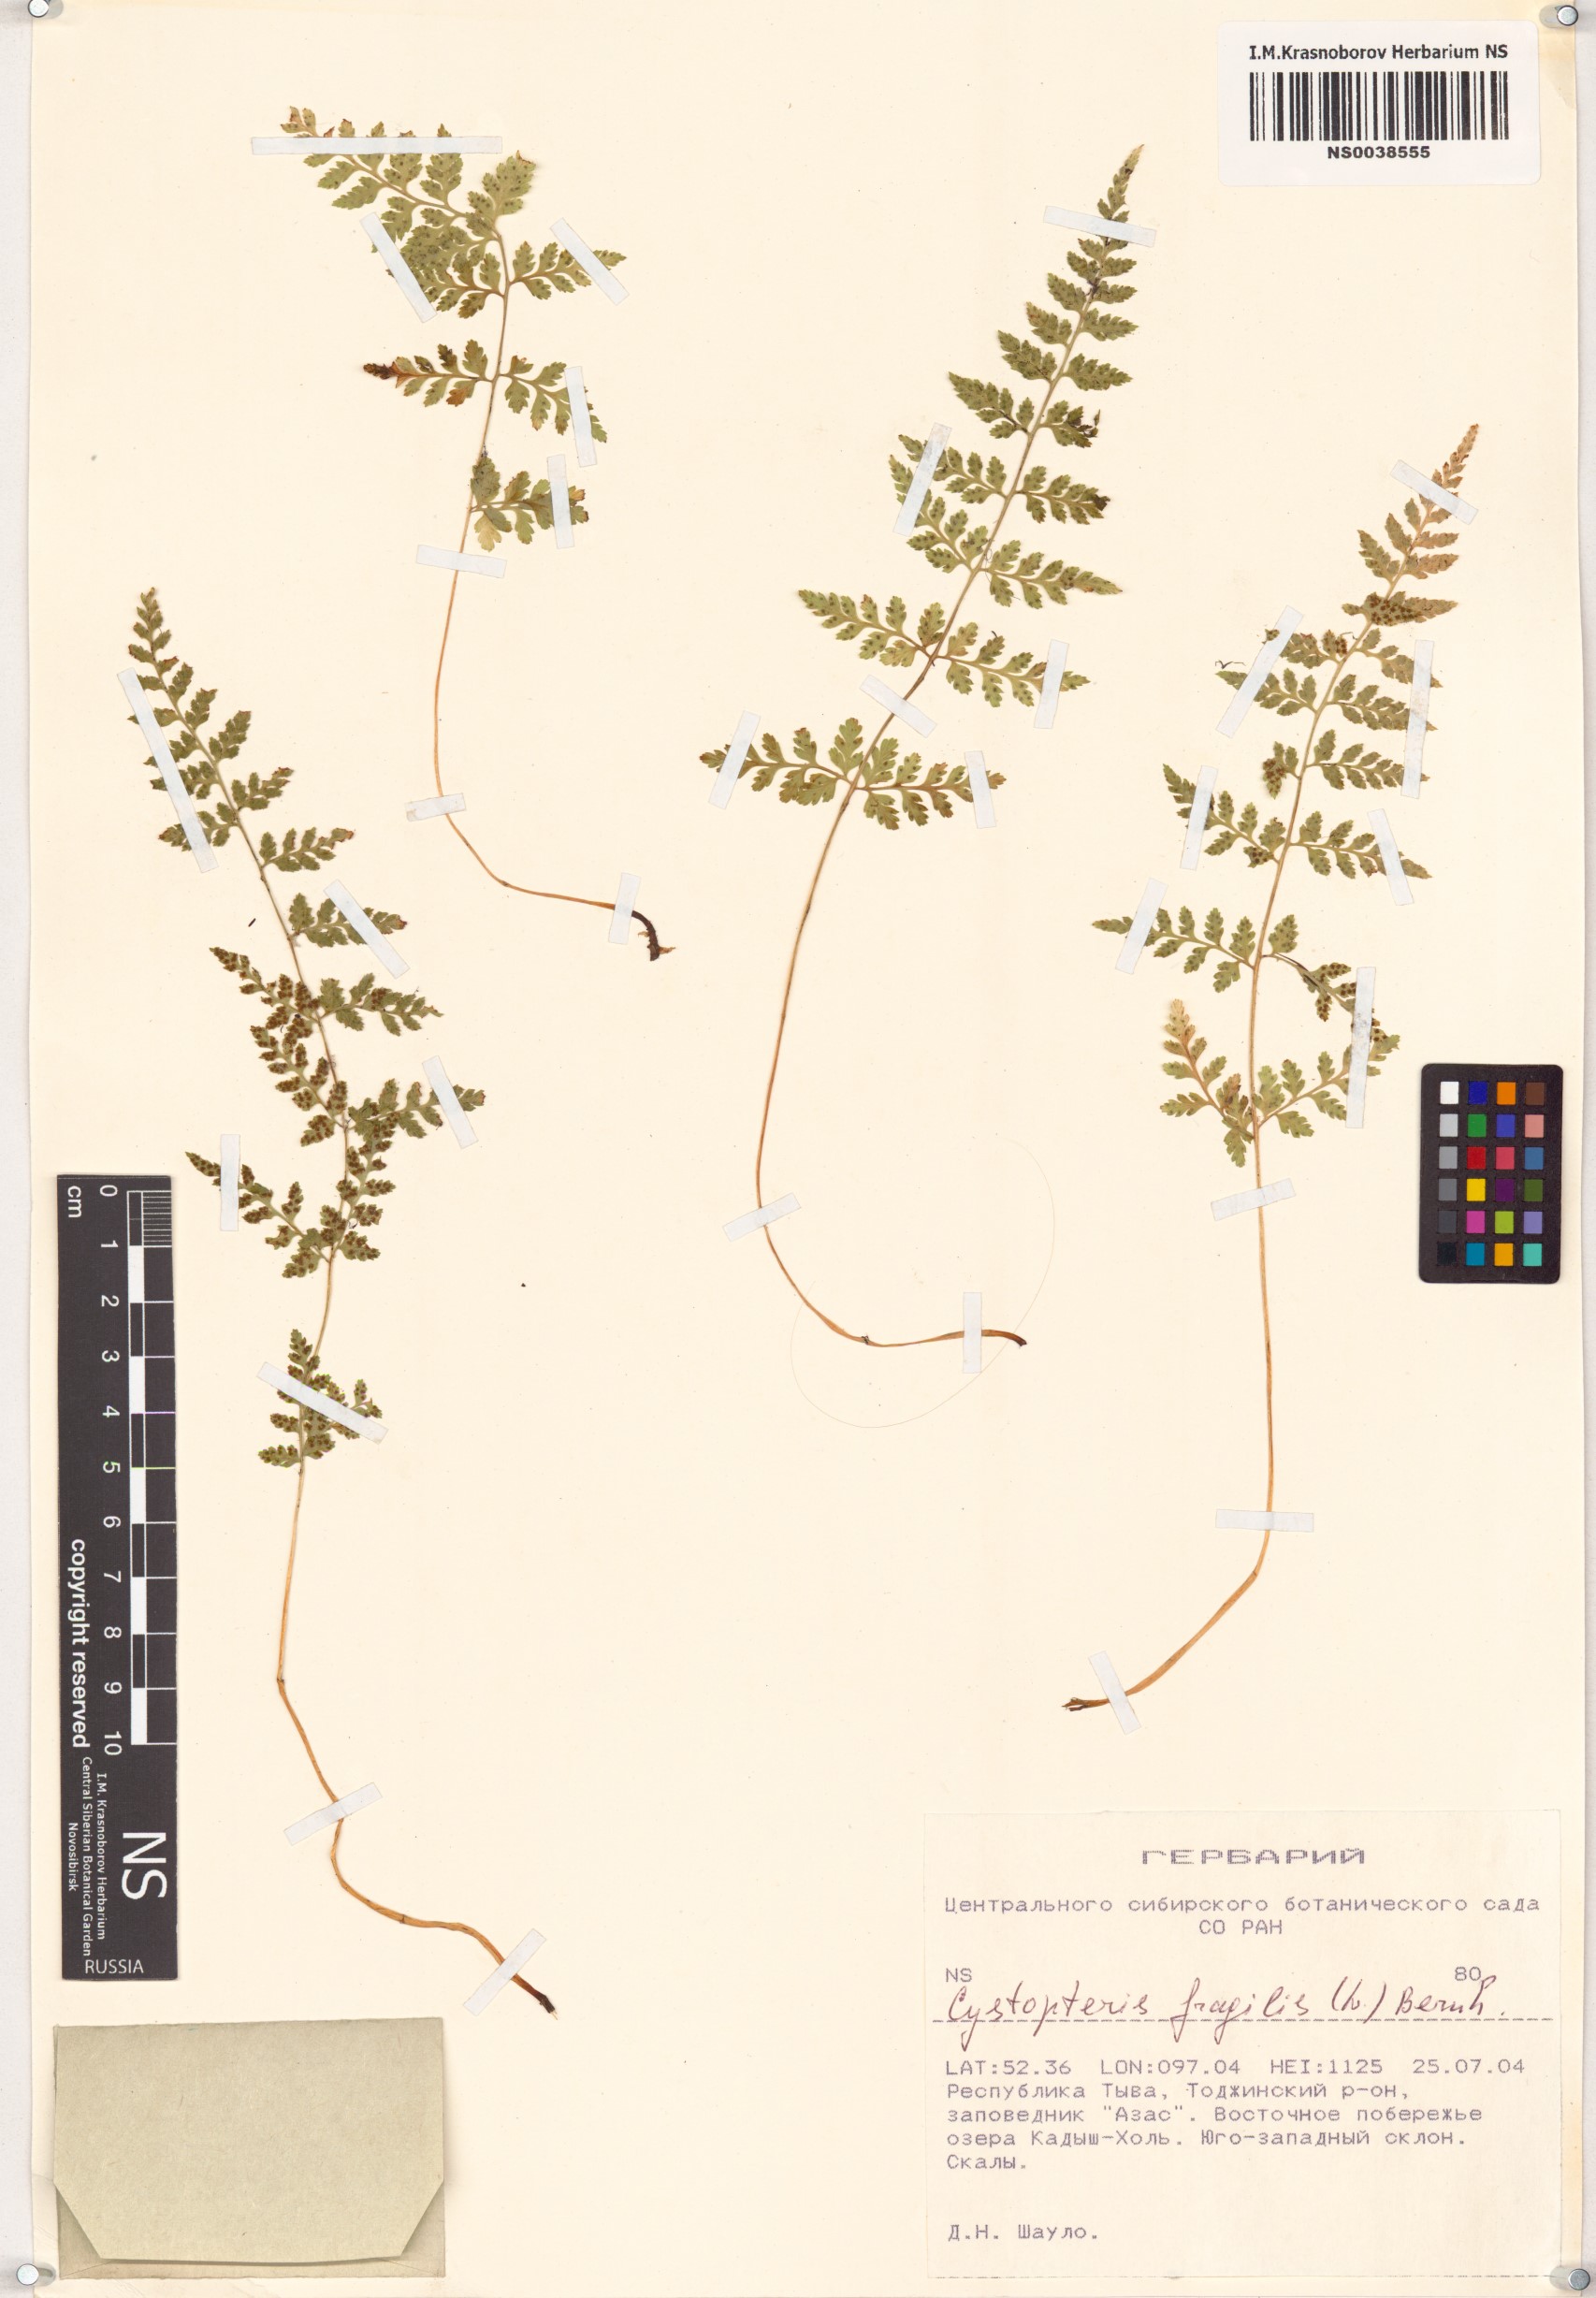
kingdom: Plantae
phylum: Tracheophyta
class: Polypodiopsida
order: Polypodiales
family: Cystopteridaceae
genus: Cystopteris
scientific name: Cystopteris fragilis
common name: Brittle bladder fern
